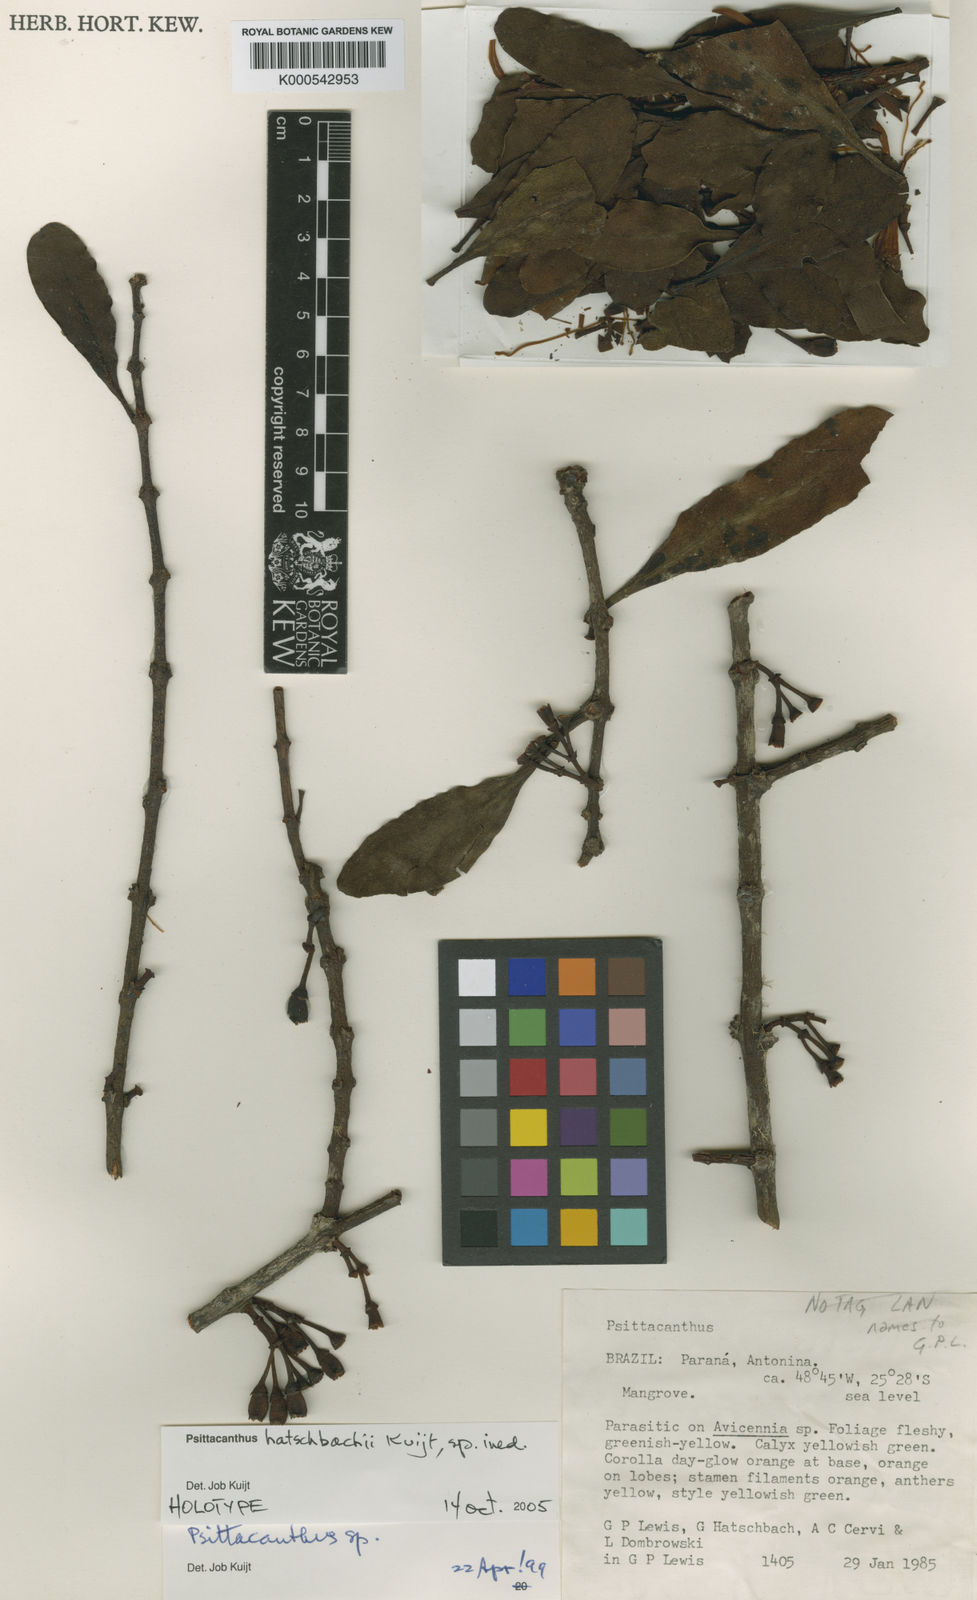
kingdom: Plantae
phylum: Tracheophyta
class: Magnoliopsida
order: Santalales
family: Loranthaceae
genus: Psittacanthus
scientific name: Psittacanthus hatschbachii
